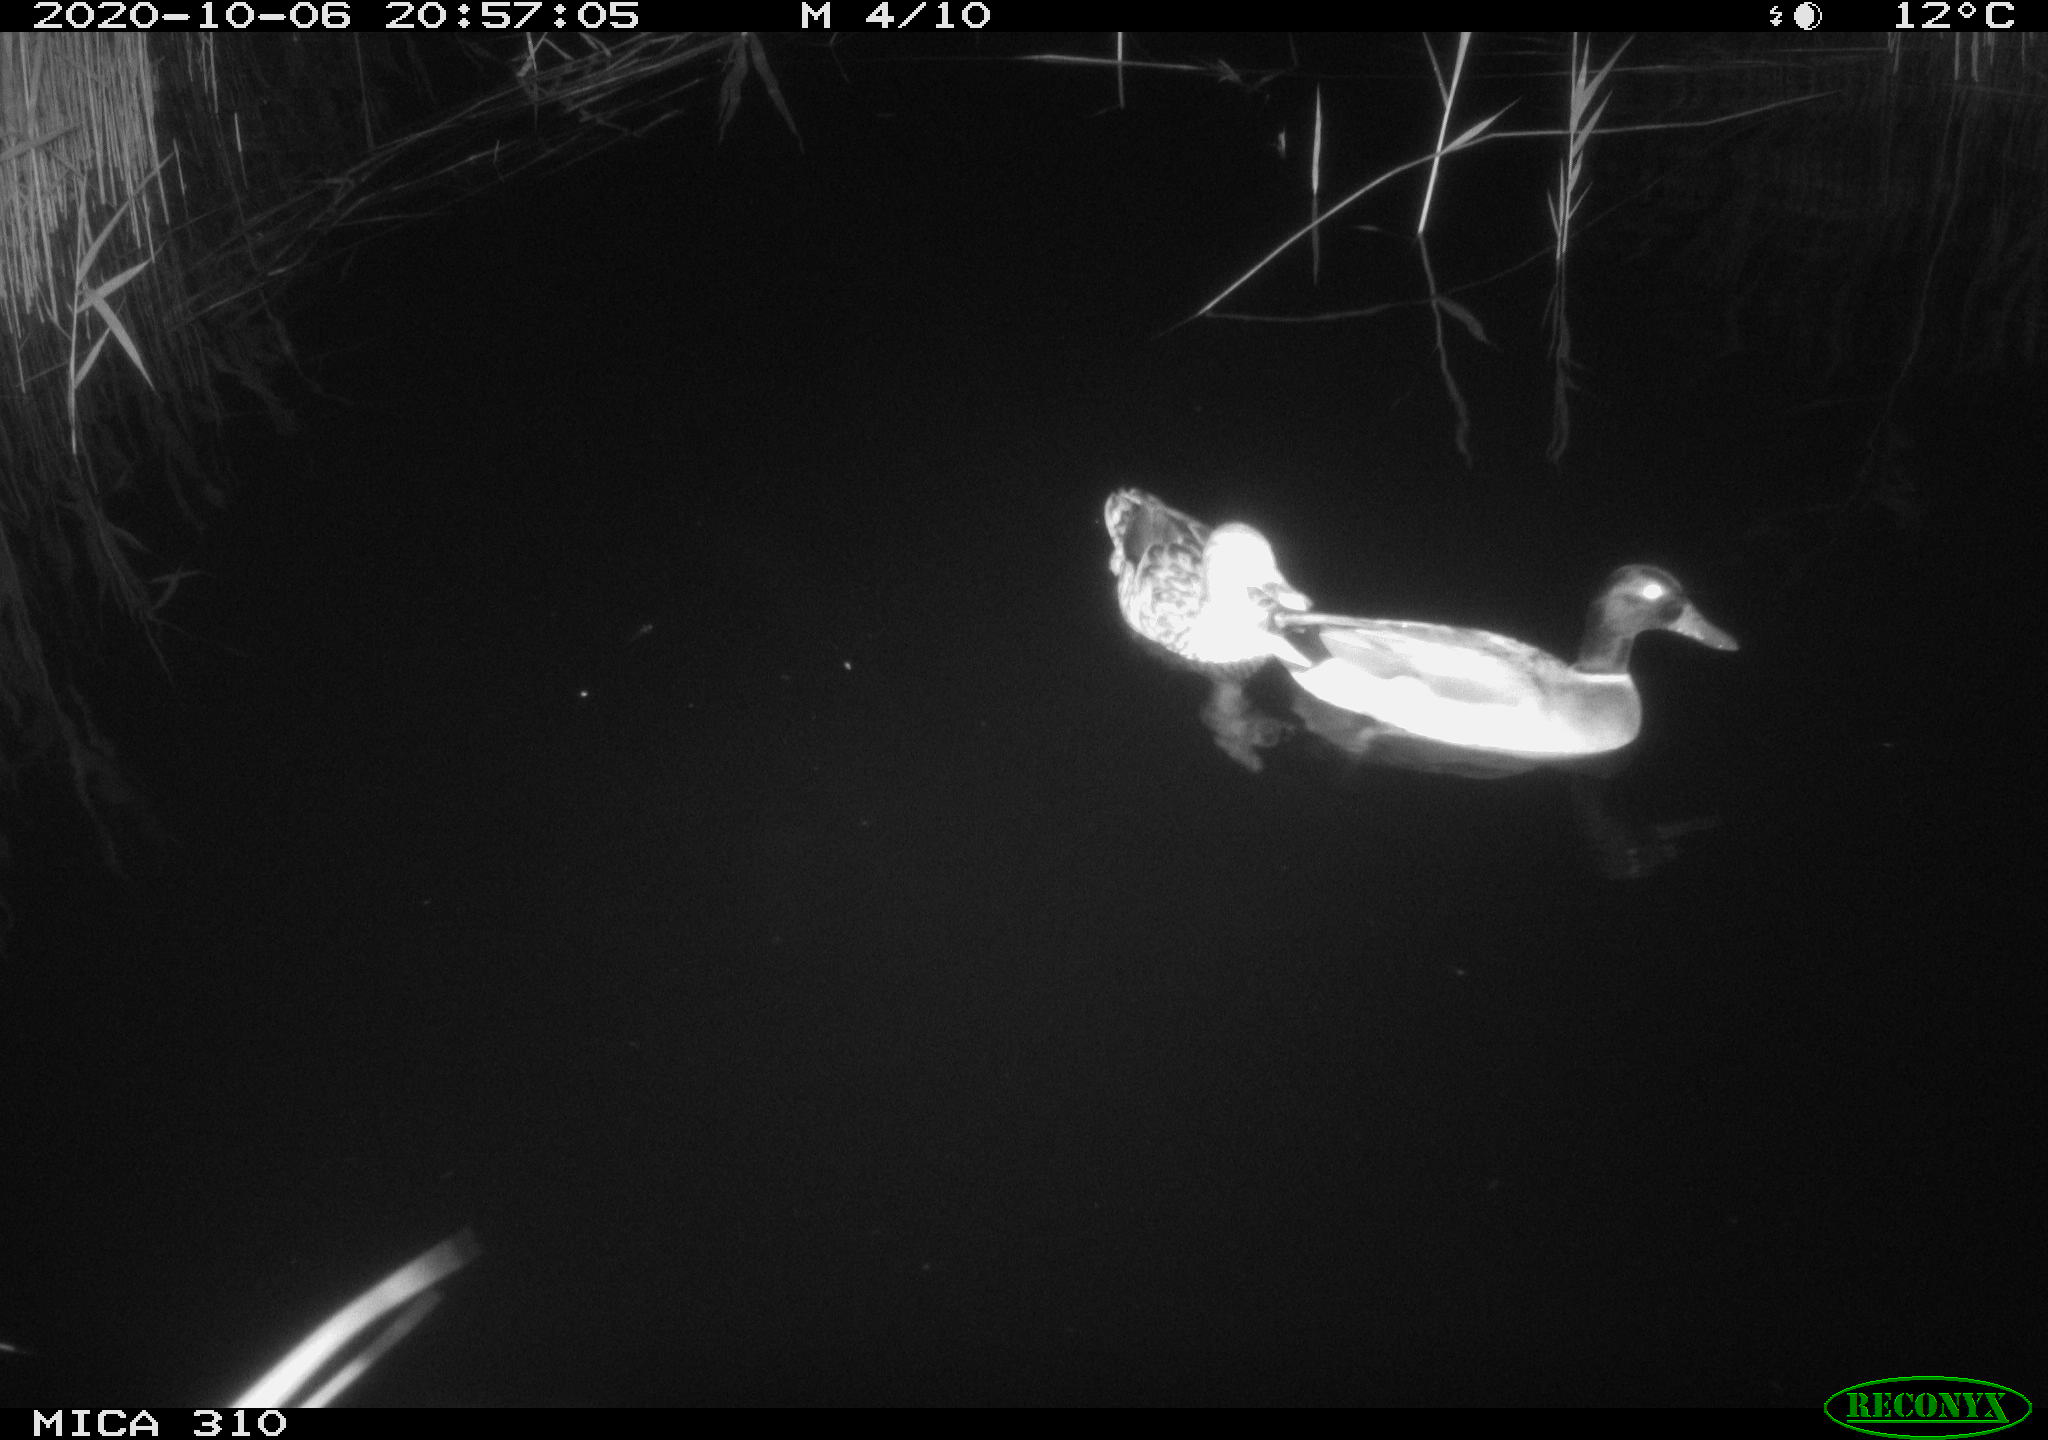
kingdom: Animalia
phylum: Chordata
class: Aves
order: Anseriformes
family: Anatidae
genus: Anas
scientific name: Anas platyrhynchos
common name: Mallard
